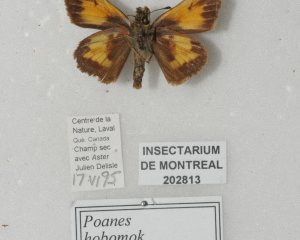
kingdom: Animalia
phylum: Arthropoda
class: Insecta
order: Lepidoptera
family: Hesperiidae
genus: Lon
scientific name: Lon hobomok
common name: Hobomok Skipper
